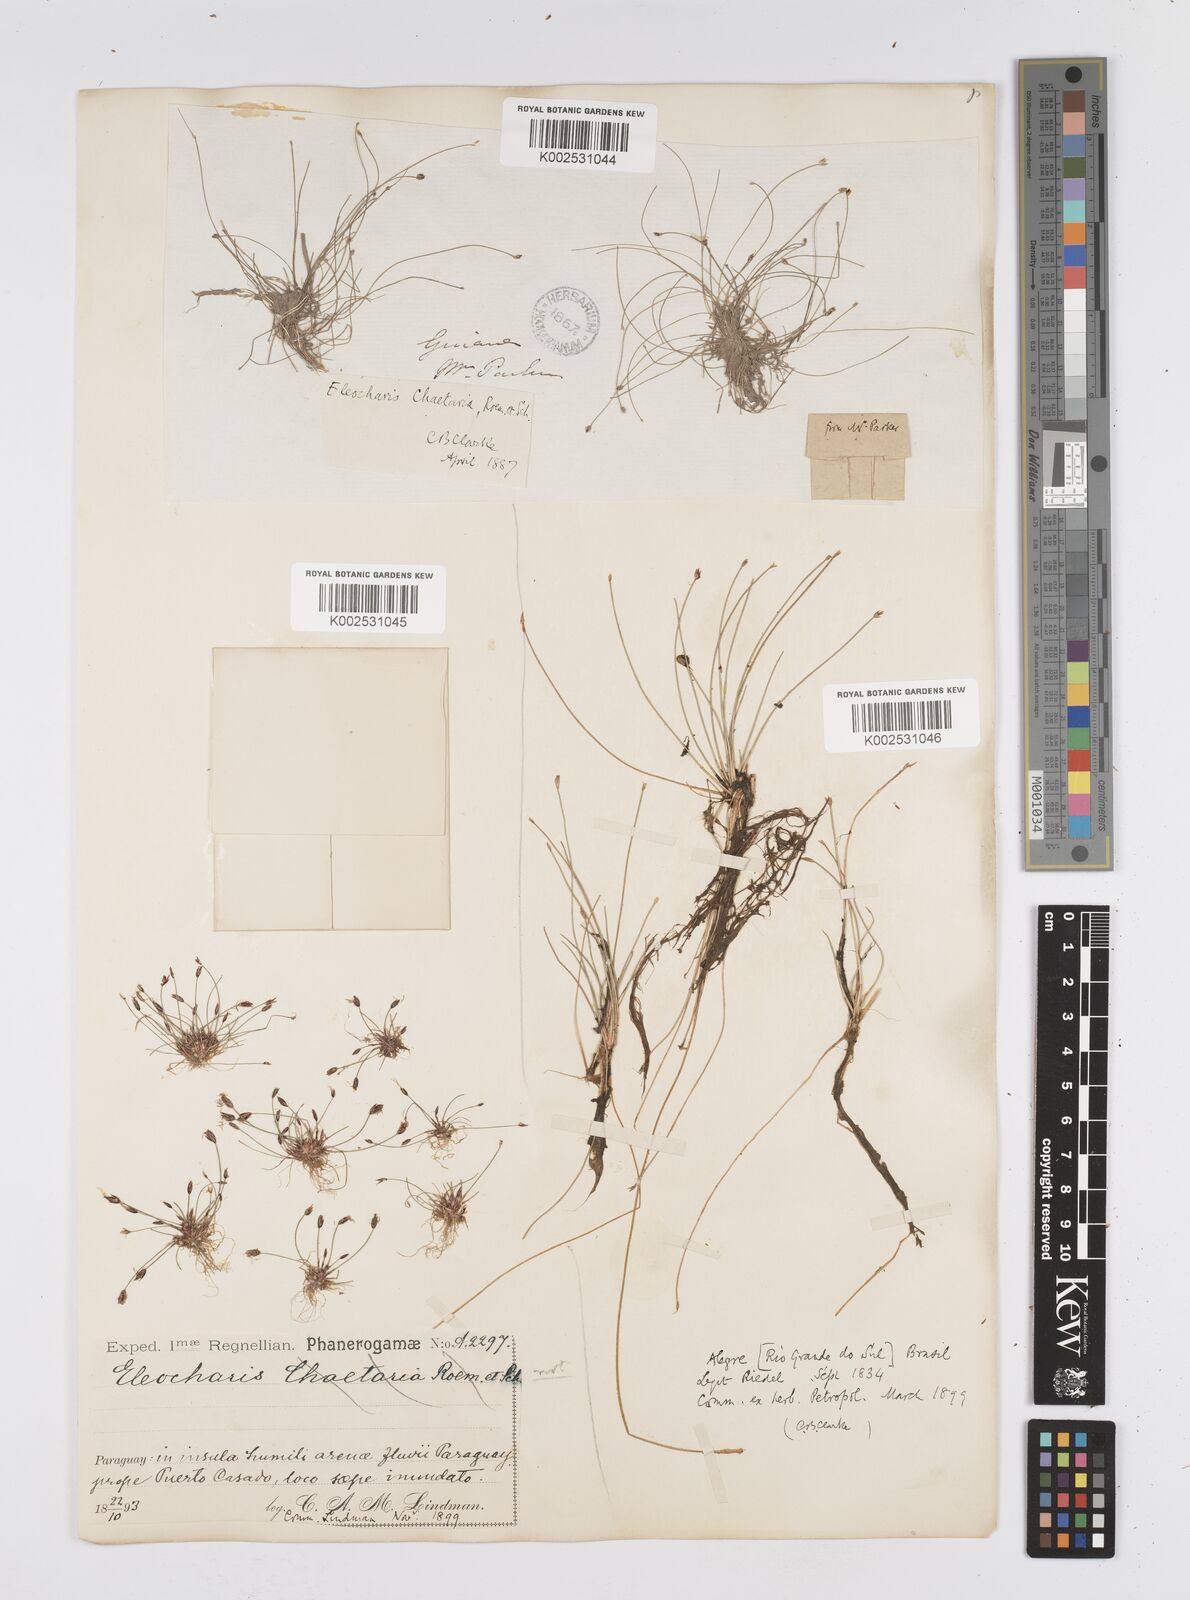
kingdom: Plantae
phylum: Tracheophyta
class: Liliopsida
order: Poales
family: Cyperaceae
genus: Eleocharis
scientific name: Eleocharis retroflexa
